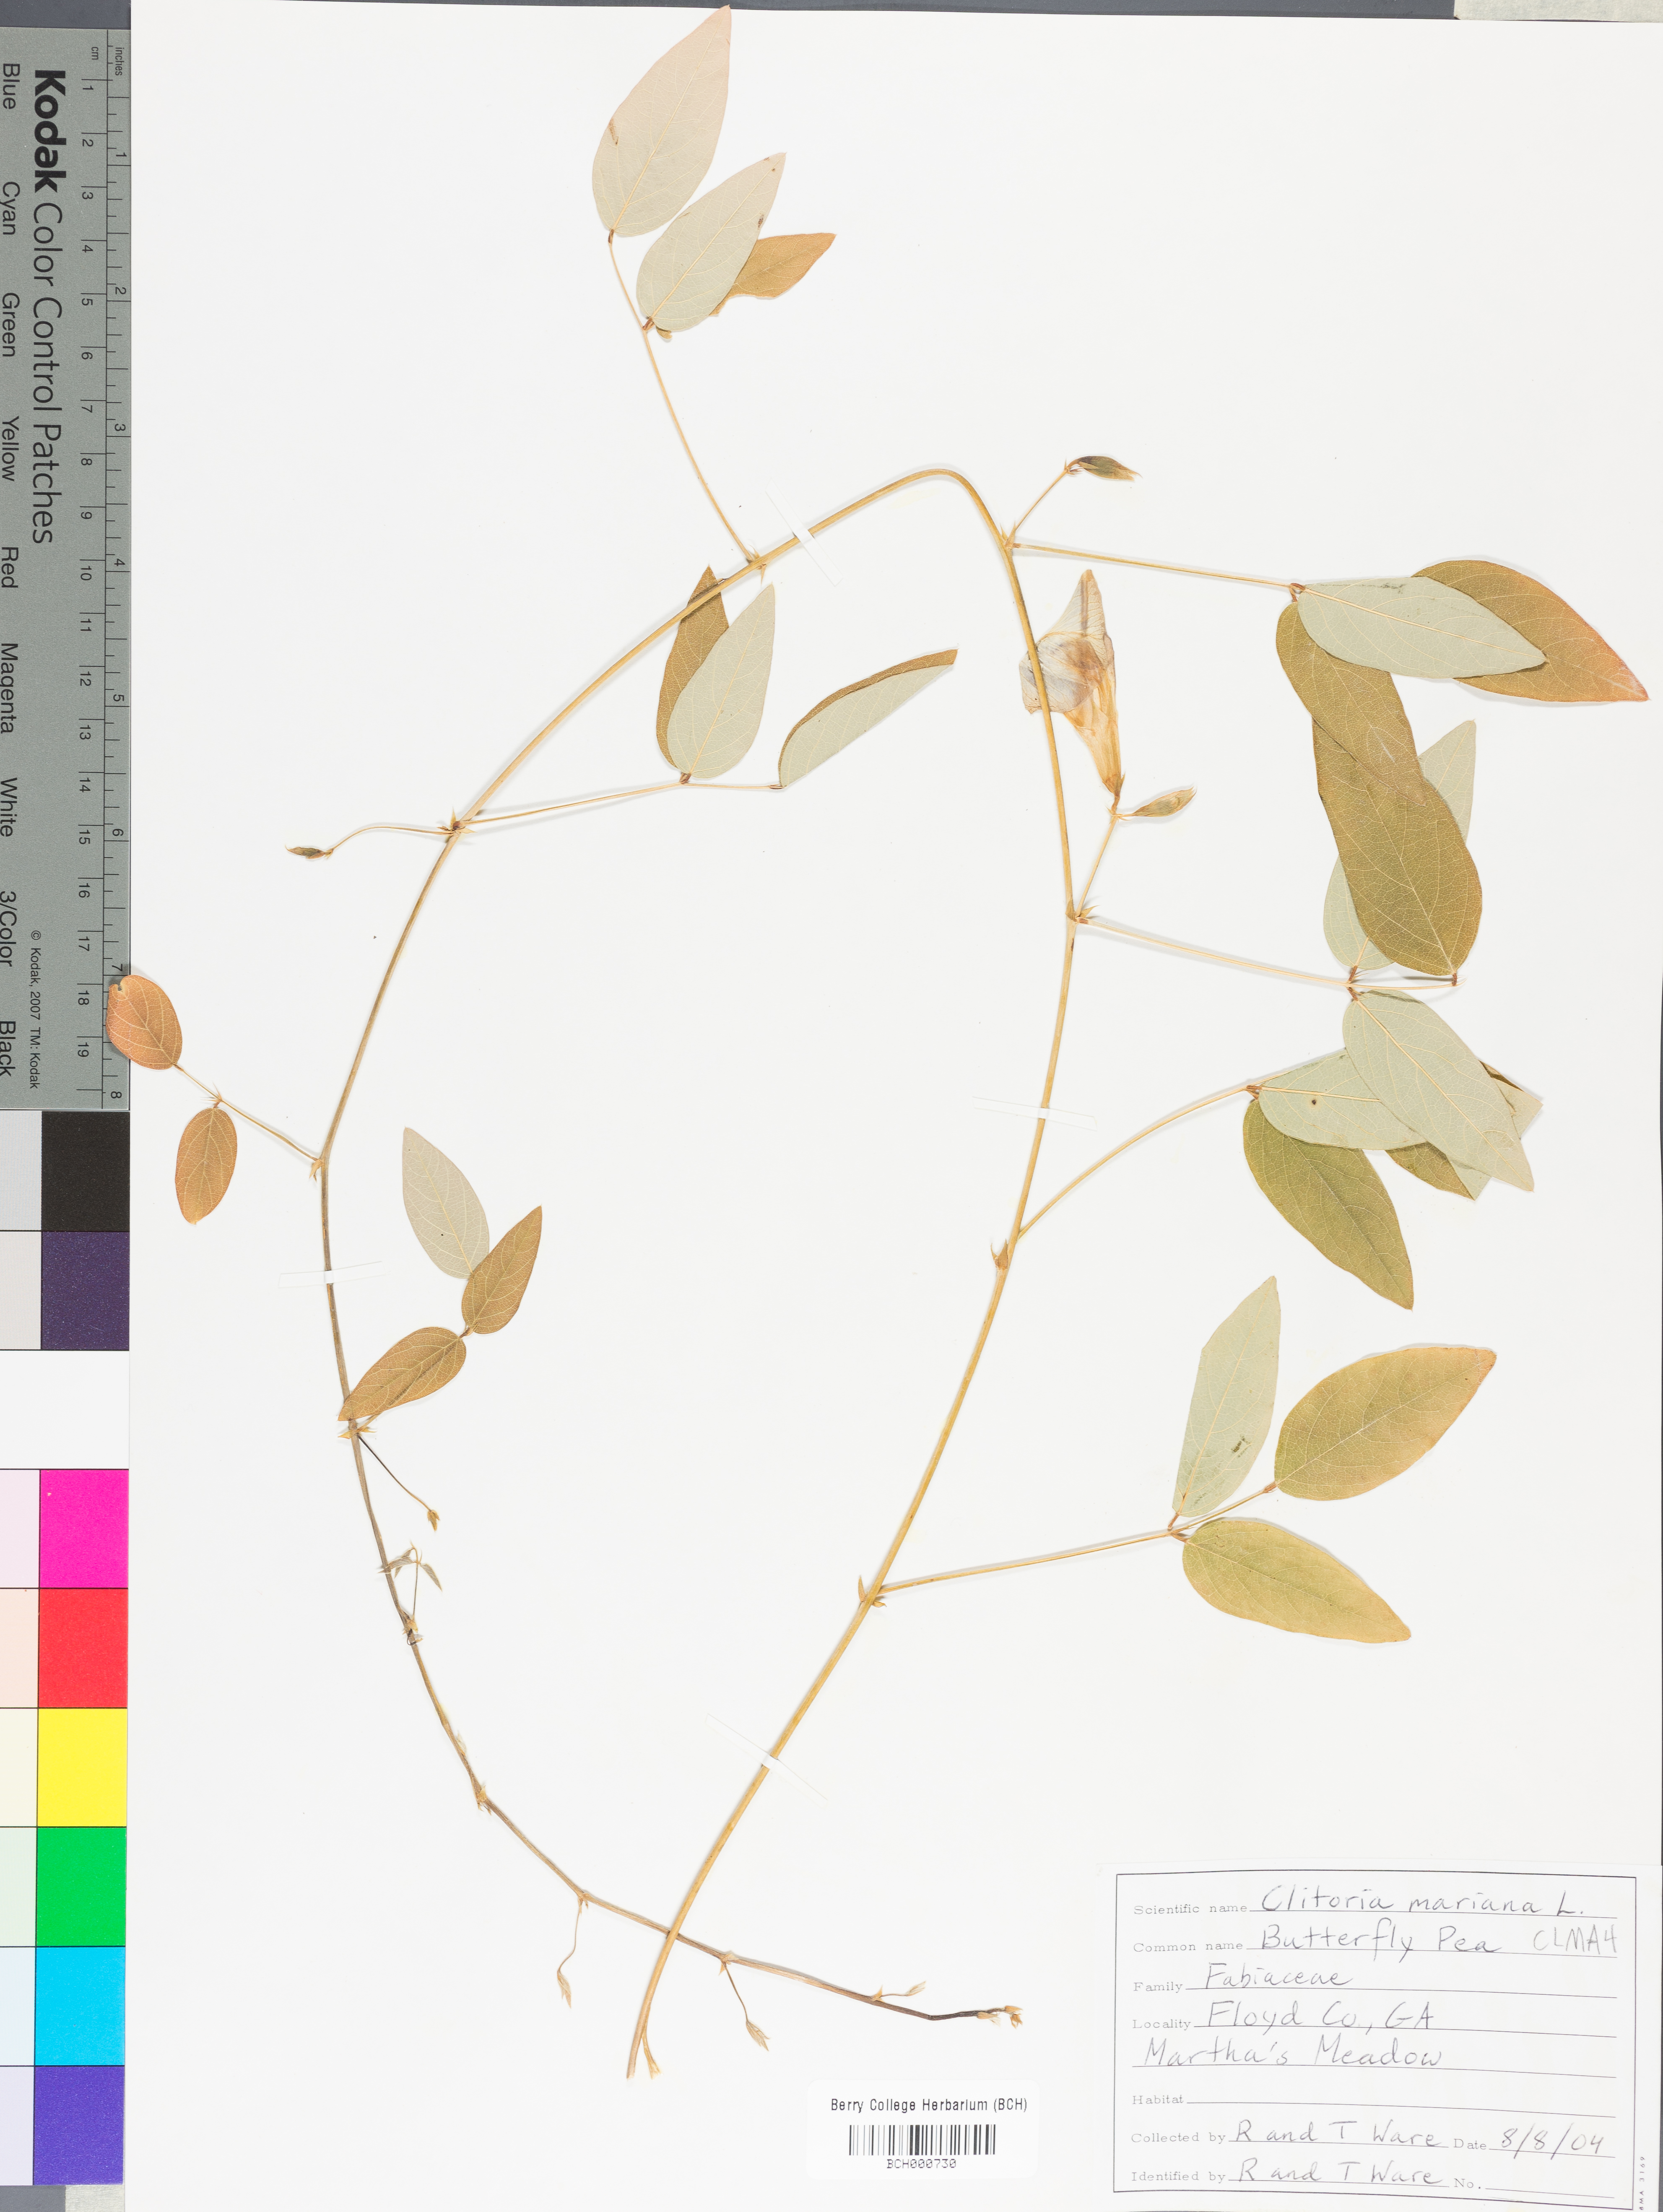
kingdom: Plantae
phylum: Tracheophyta
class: Magnoliopsida
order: Fabales
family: Fabaceae
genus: Clitoria
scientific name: Clitoria mariana
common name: Butterfly-pea
